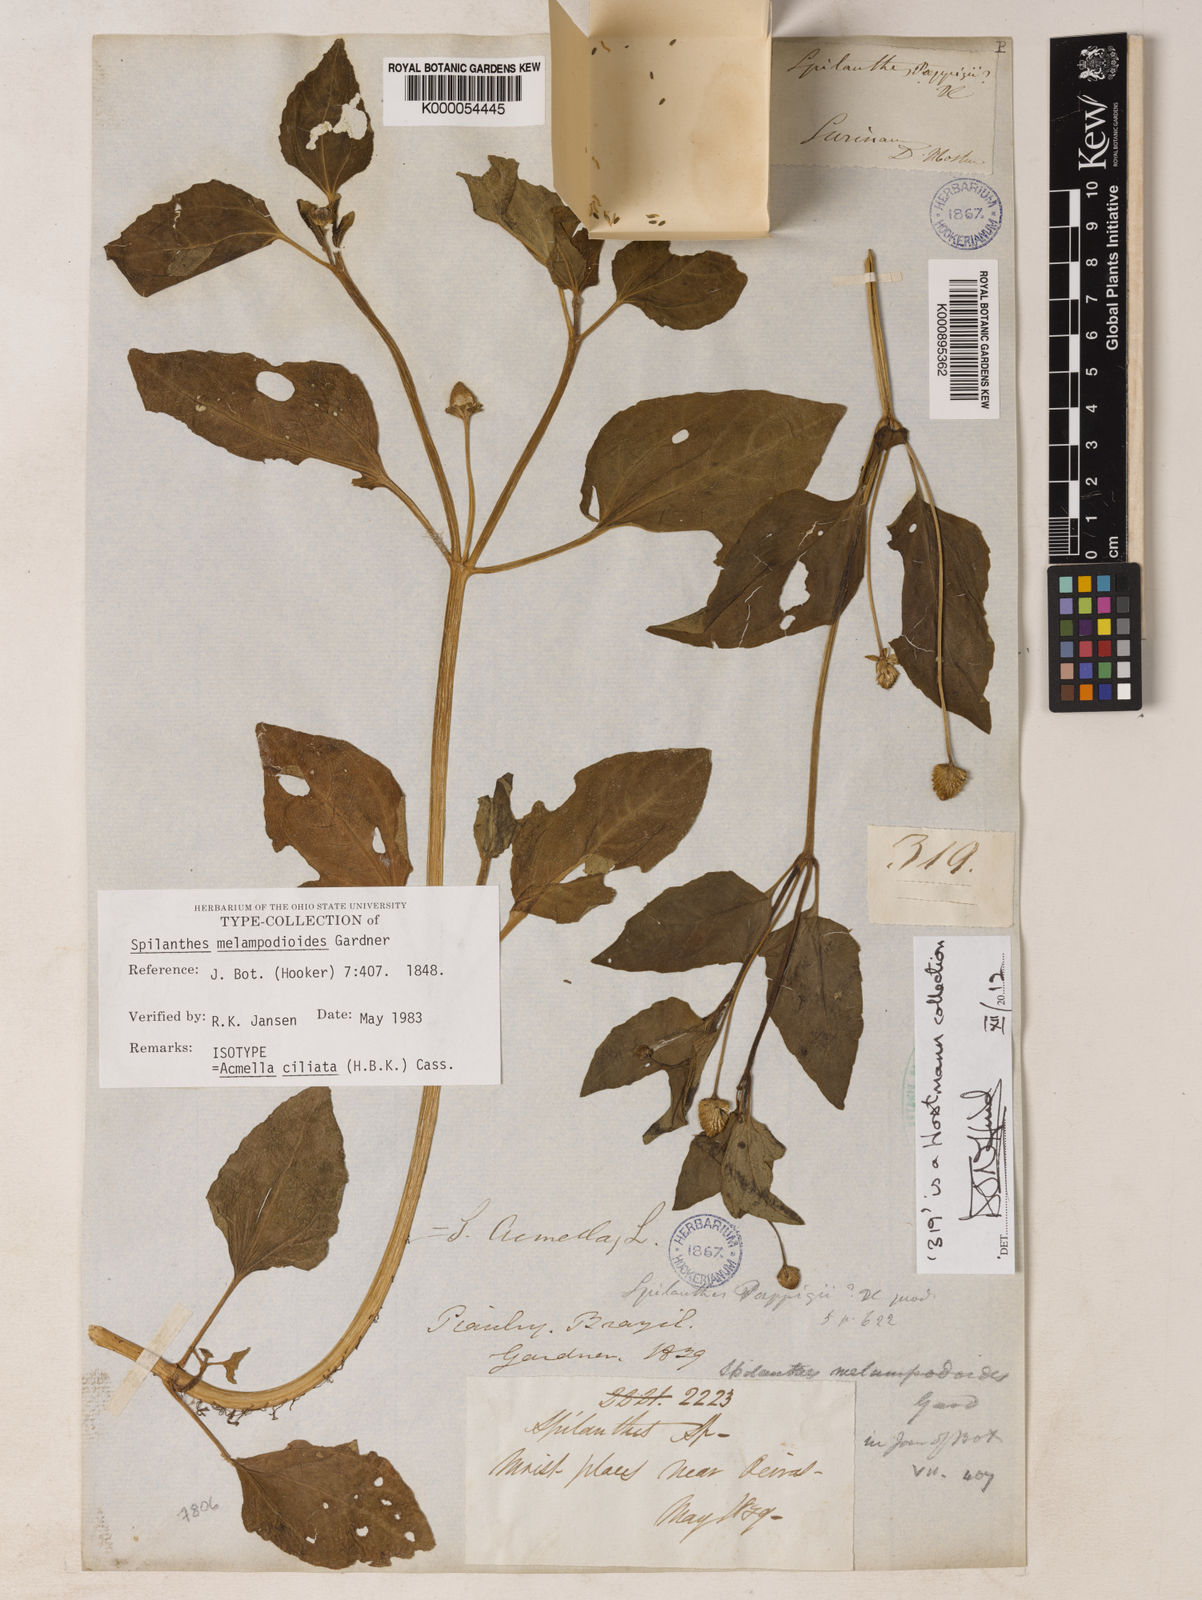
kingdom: Plantae
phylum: Tracheophyta
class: Magnoliopsida
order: Asterales
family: Asteraceae
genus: Acmella
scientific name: Acmella ciliata
